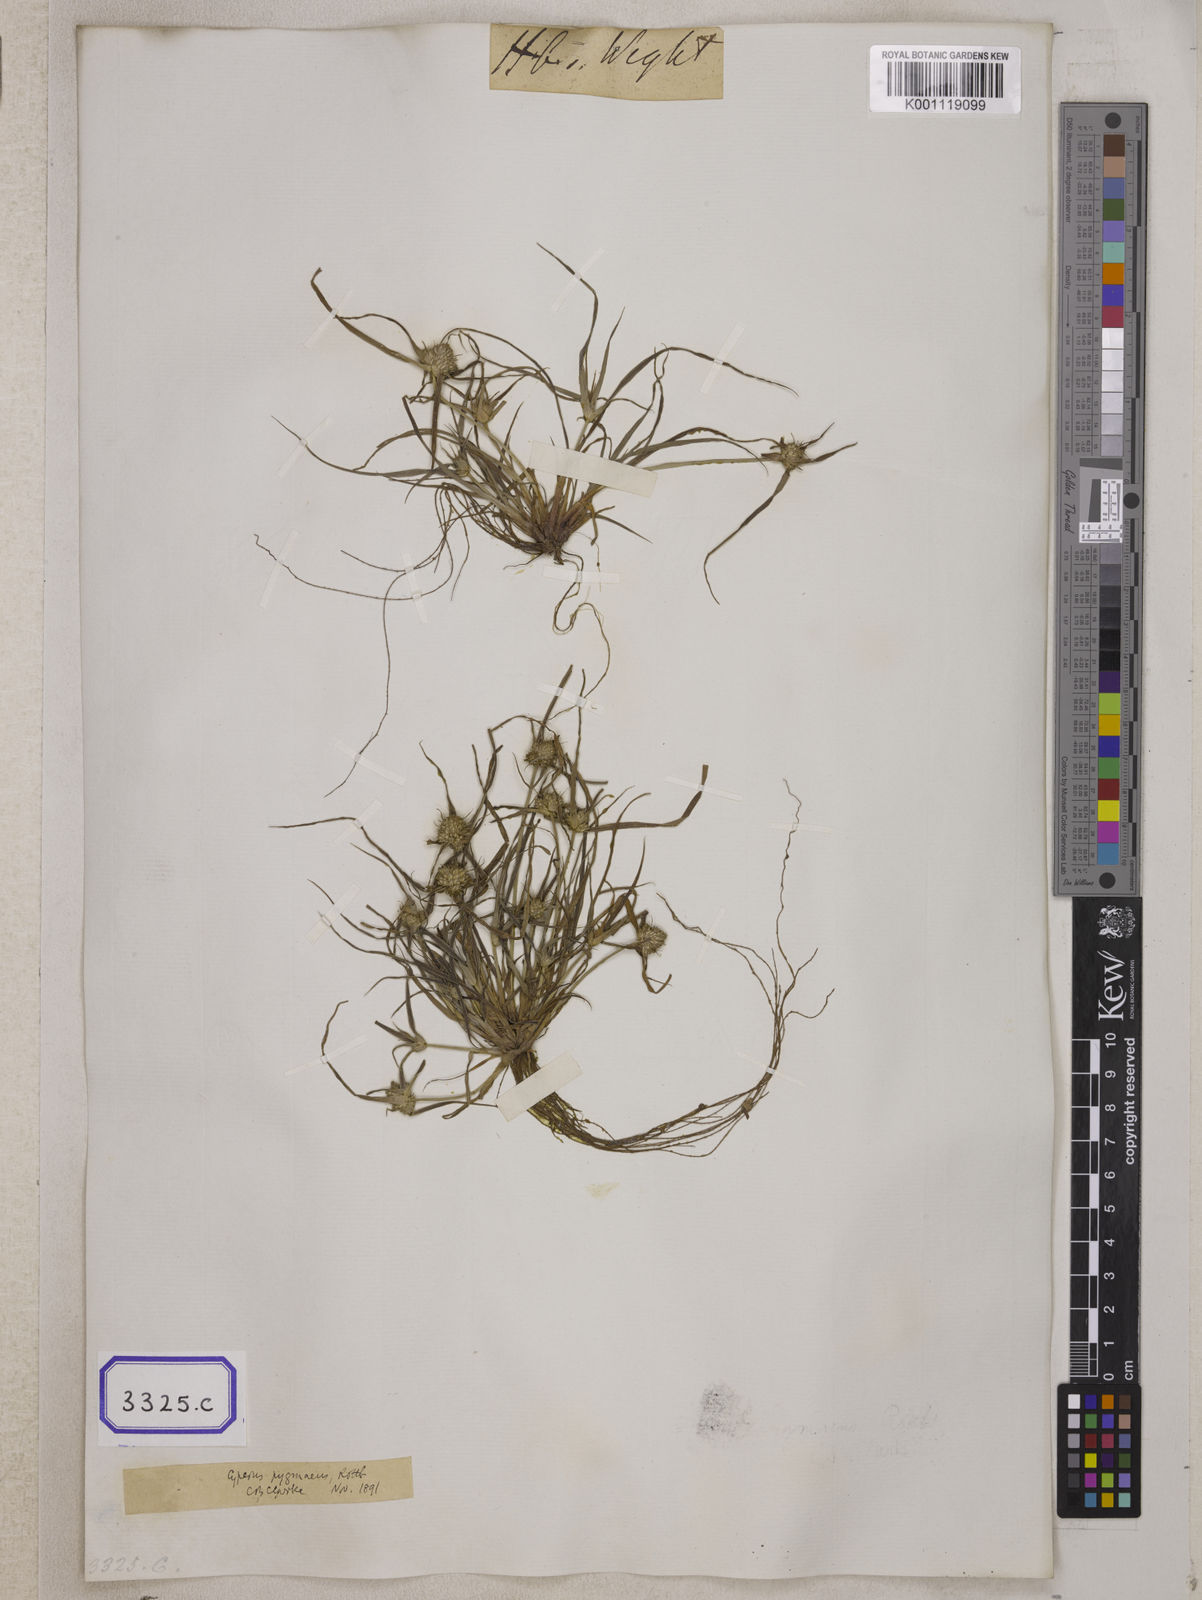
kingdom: Plantae
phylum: Tracheophyta
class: Liliopsida
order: Poales
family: Cyperaceae
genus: Cyperus
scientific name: Cyperus
